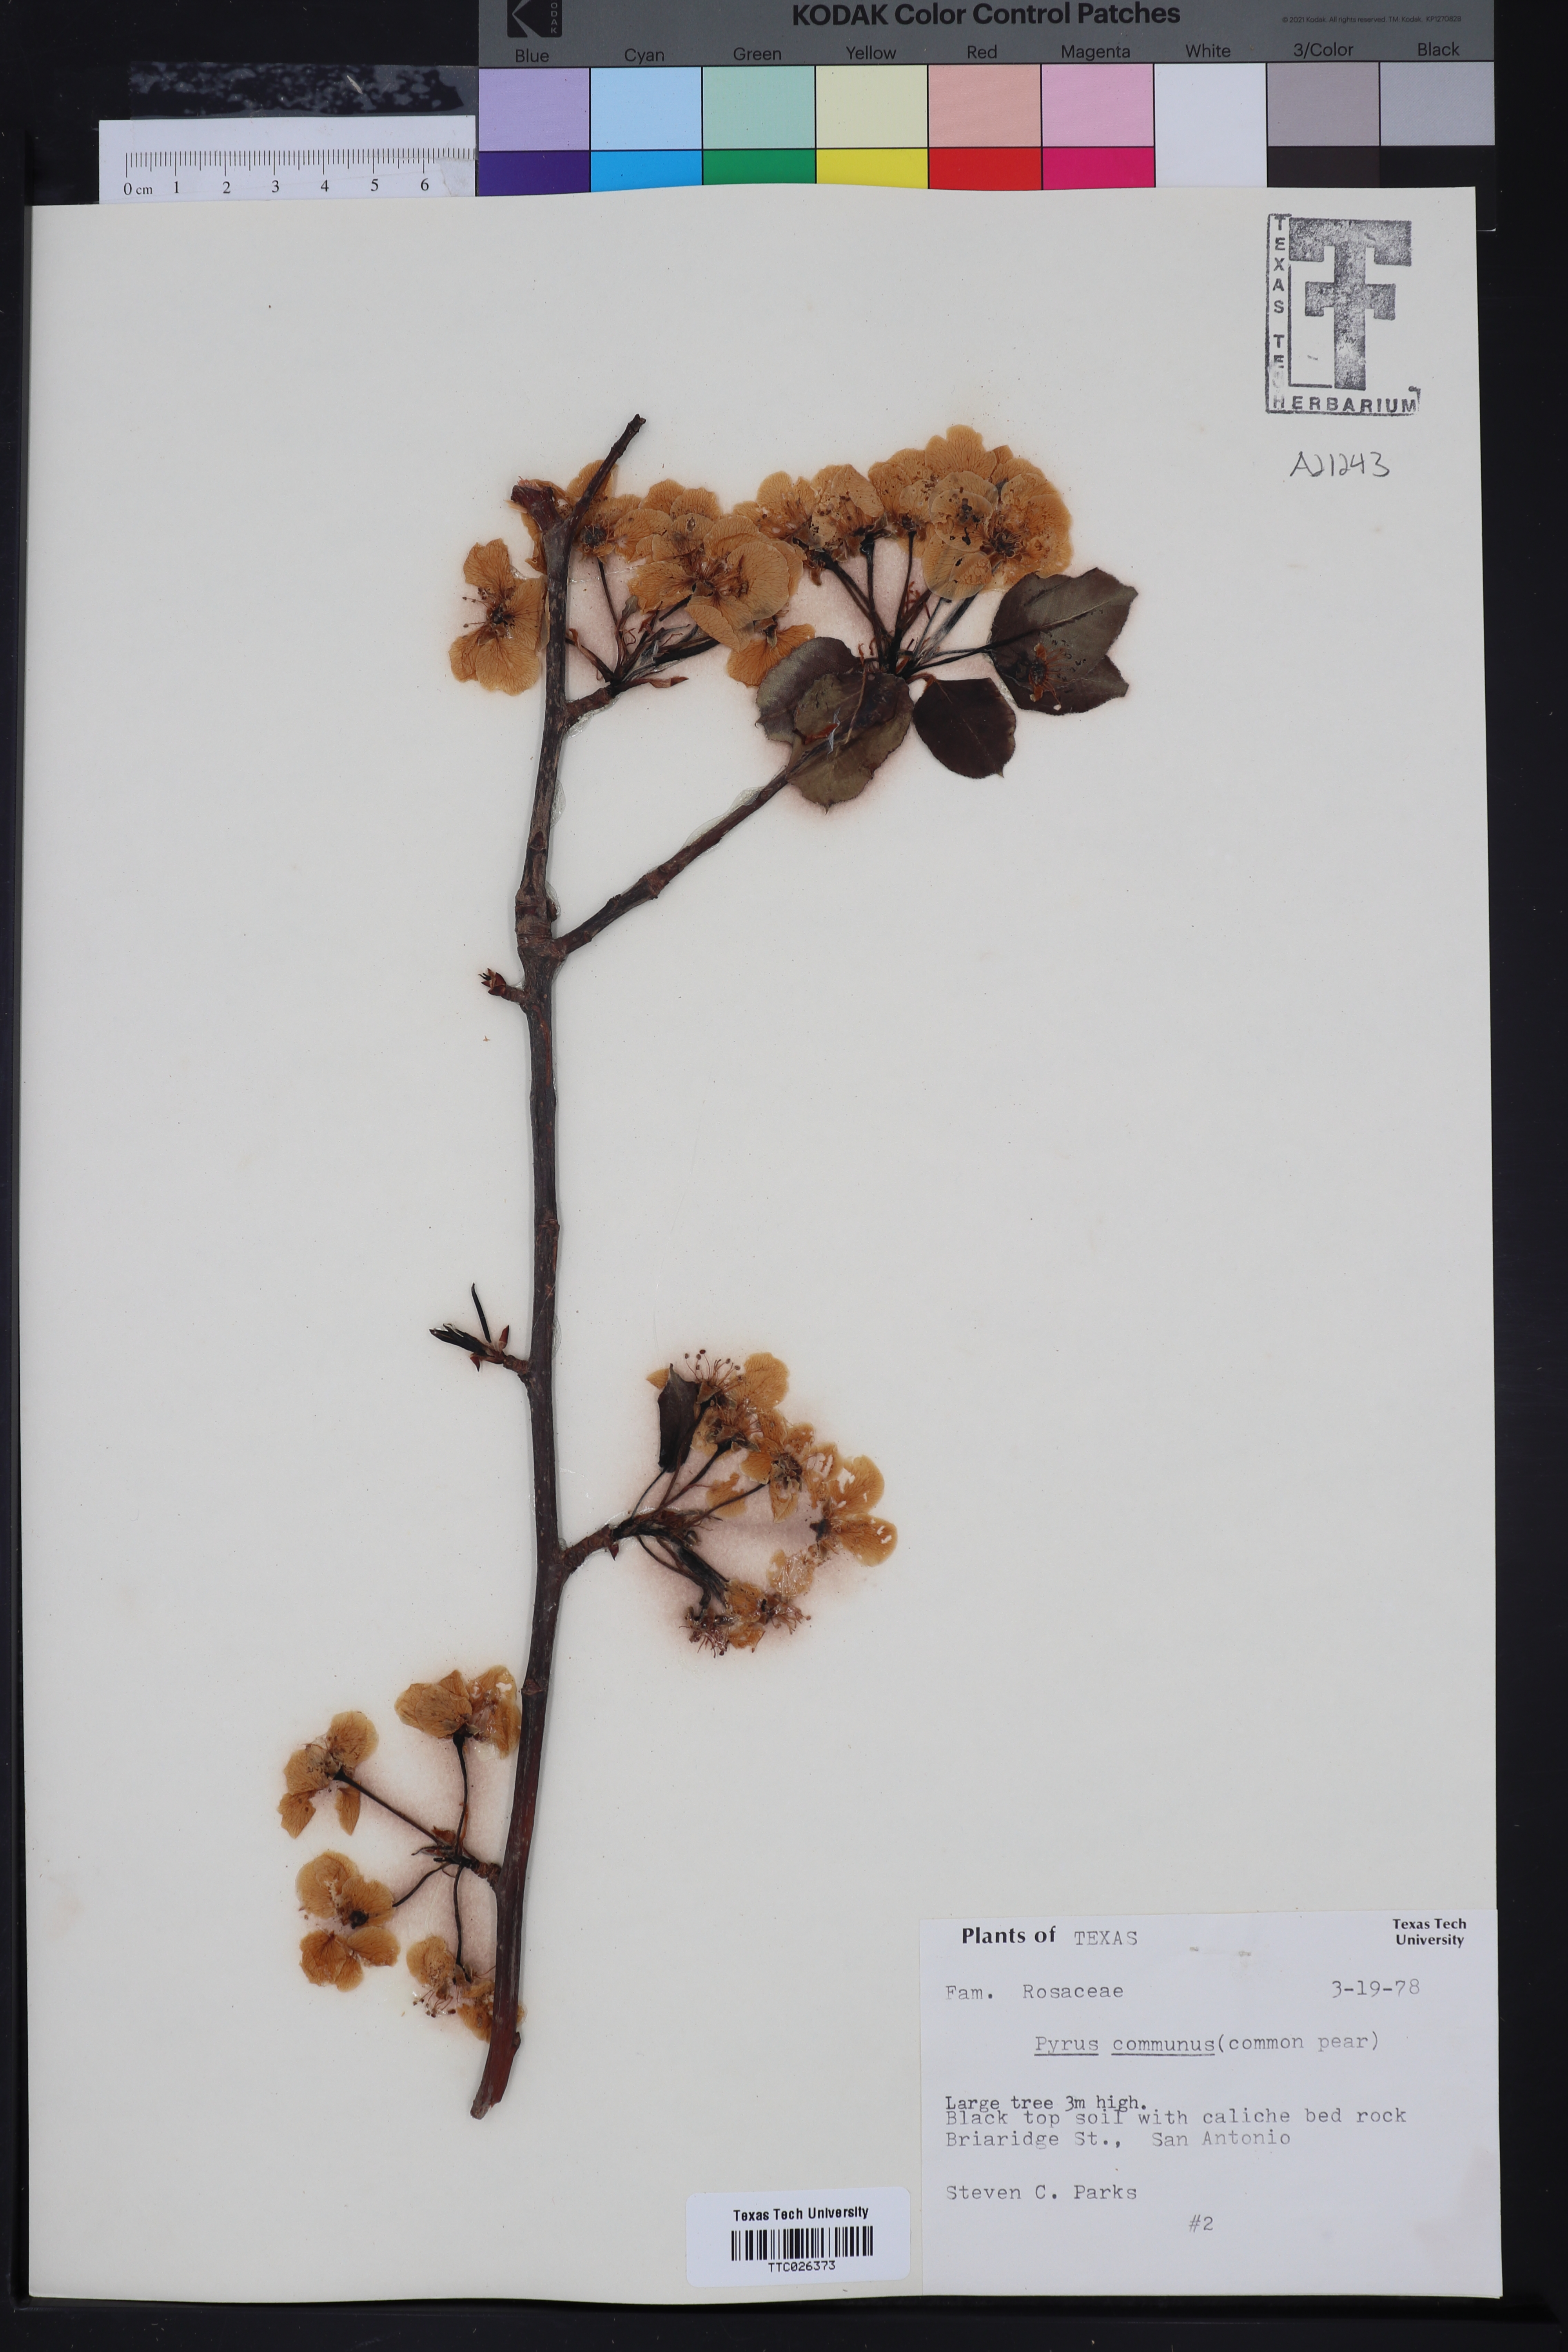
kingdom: Plantae
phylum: Tracheophyta
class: Magnoliopsida
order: Rosales
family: Rosaceae
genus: Pyrus
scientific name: Pyrus communis
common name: Pear
